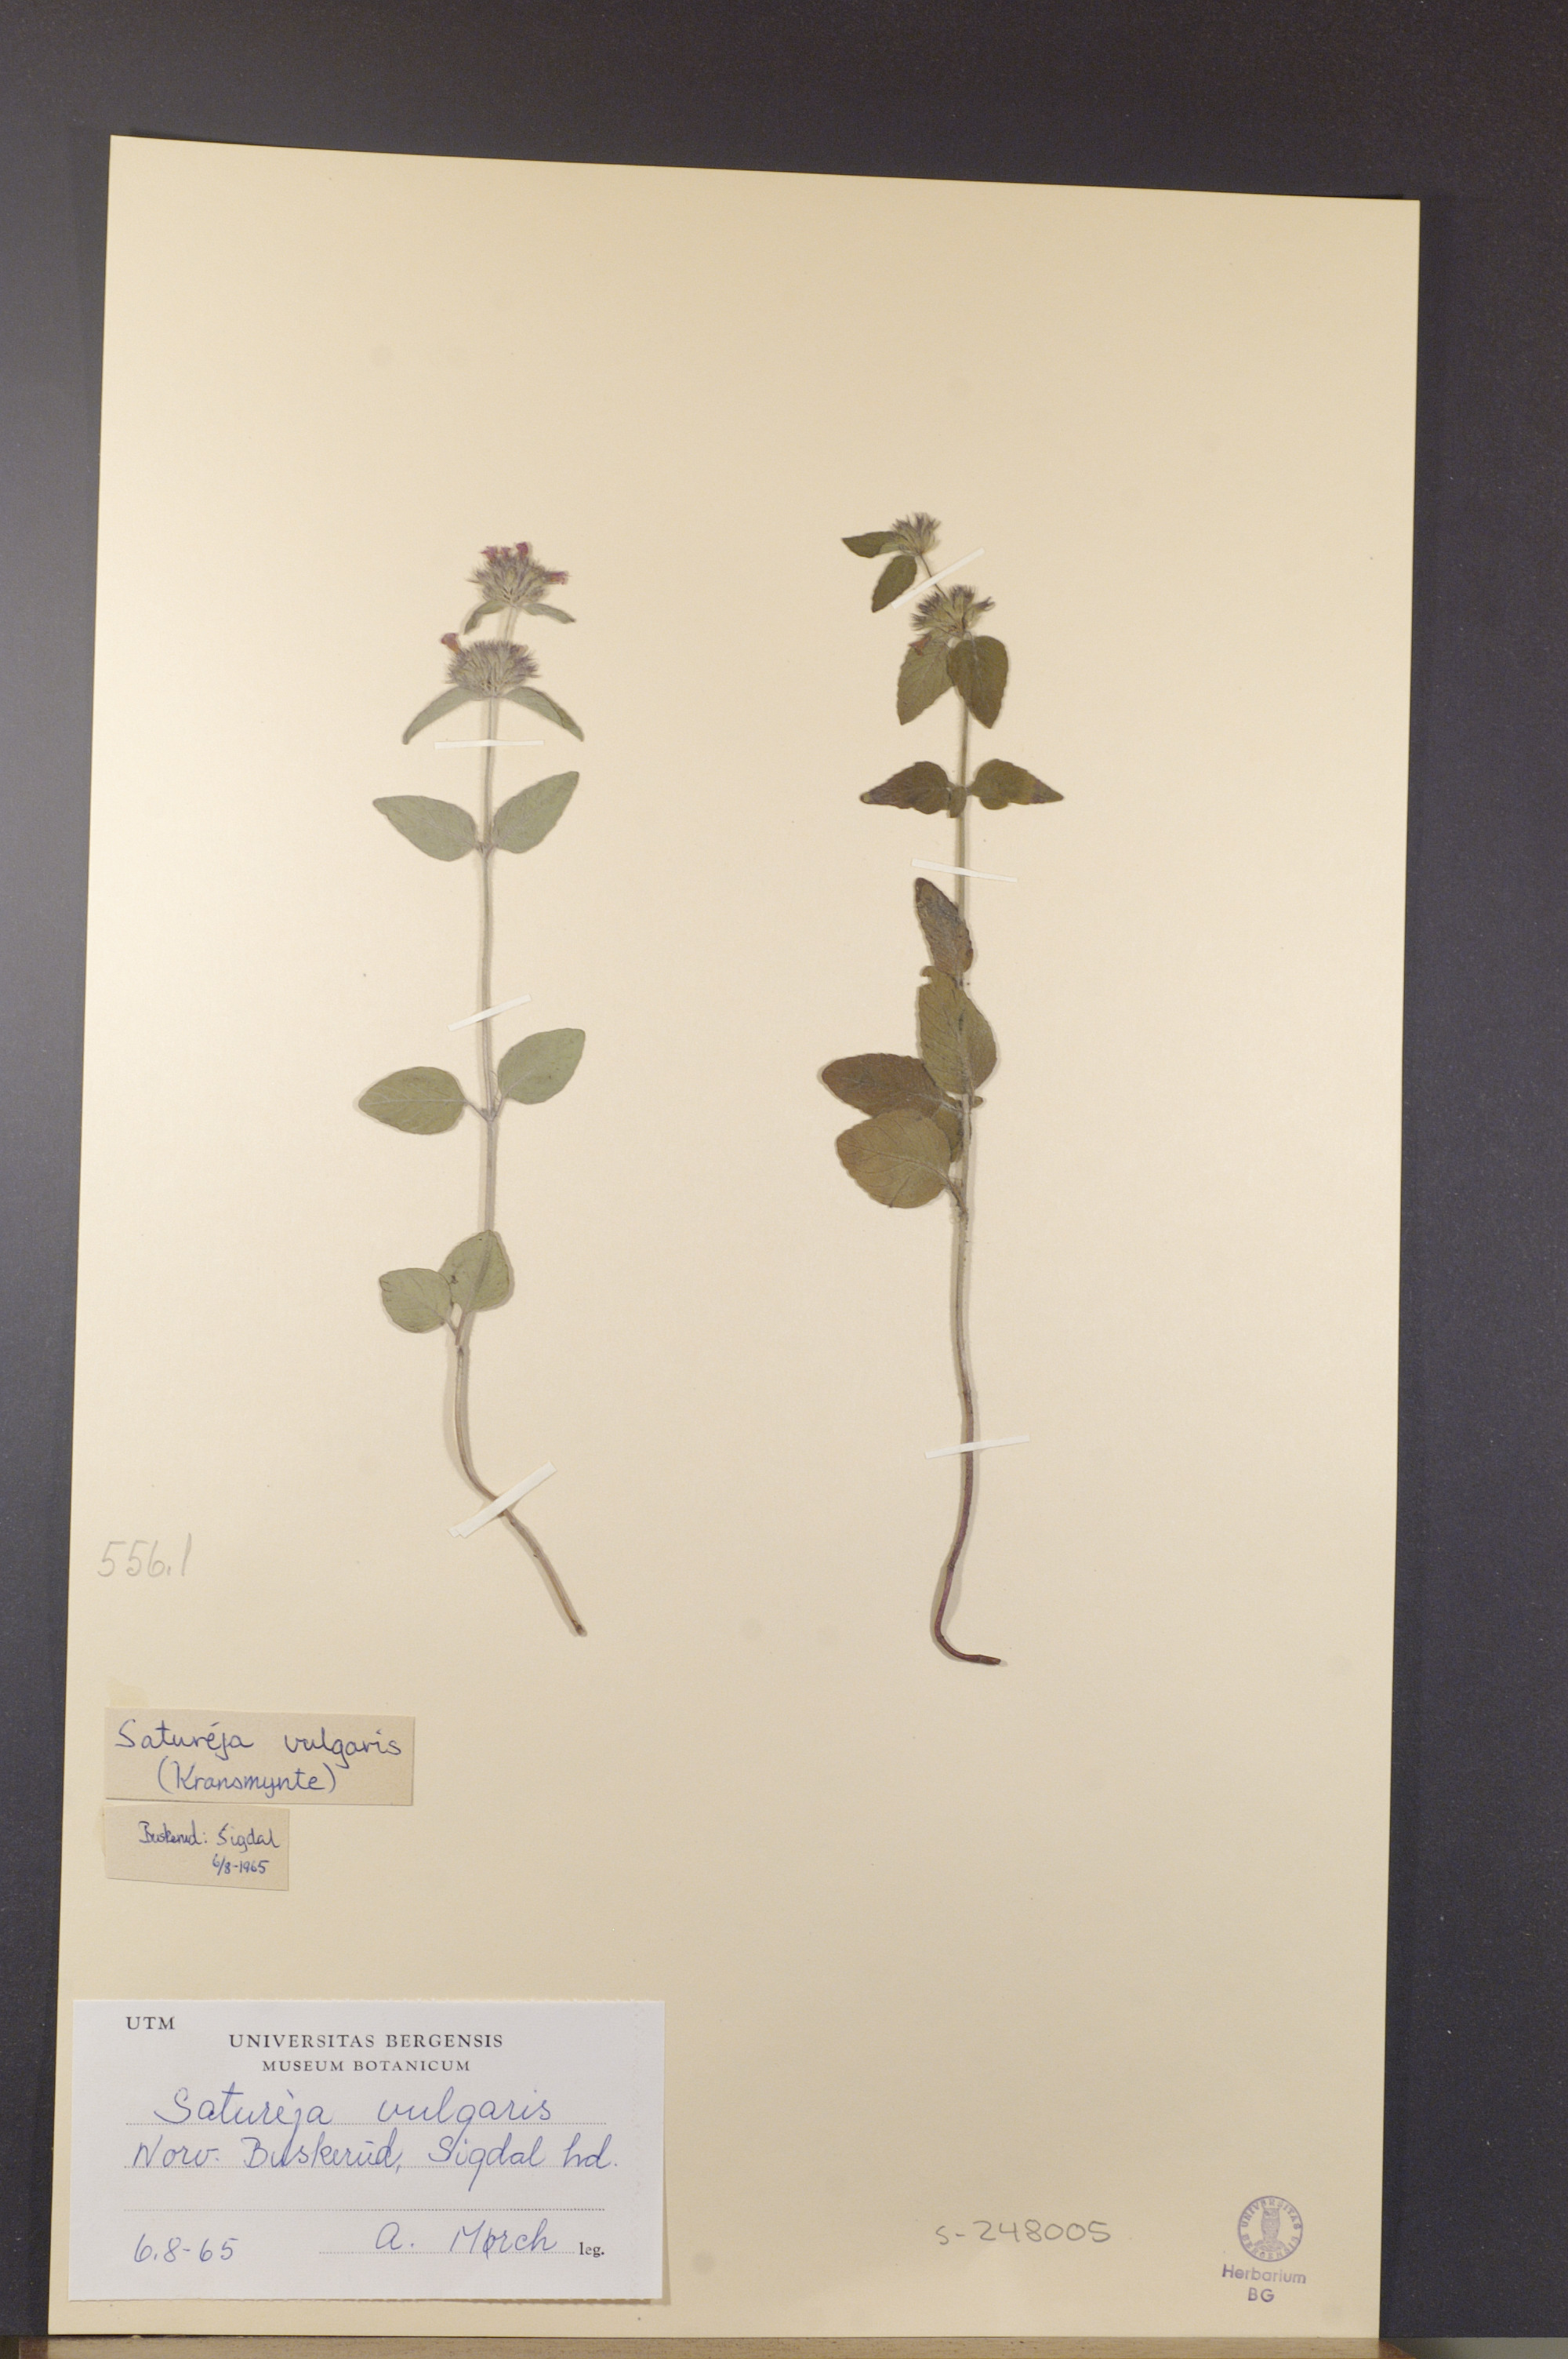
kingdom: Plantae
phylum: Tracheophyta
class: Magnoliopsida
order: Lamiales
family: Lamiaceae
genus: Clinopodium
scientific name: Clinopodium vulgare
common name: Wild basil
